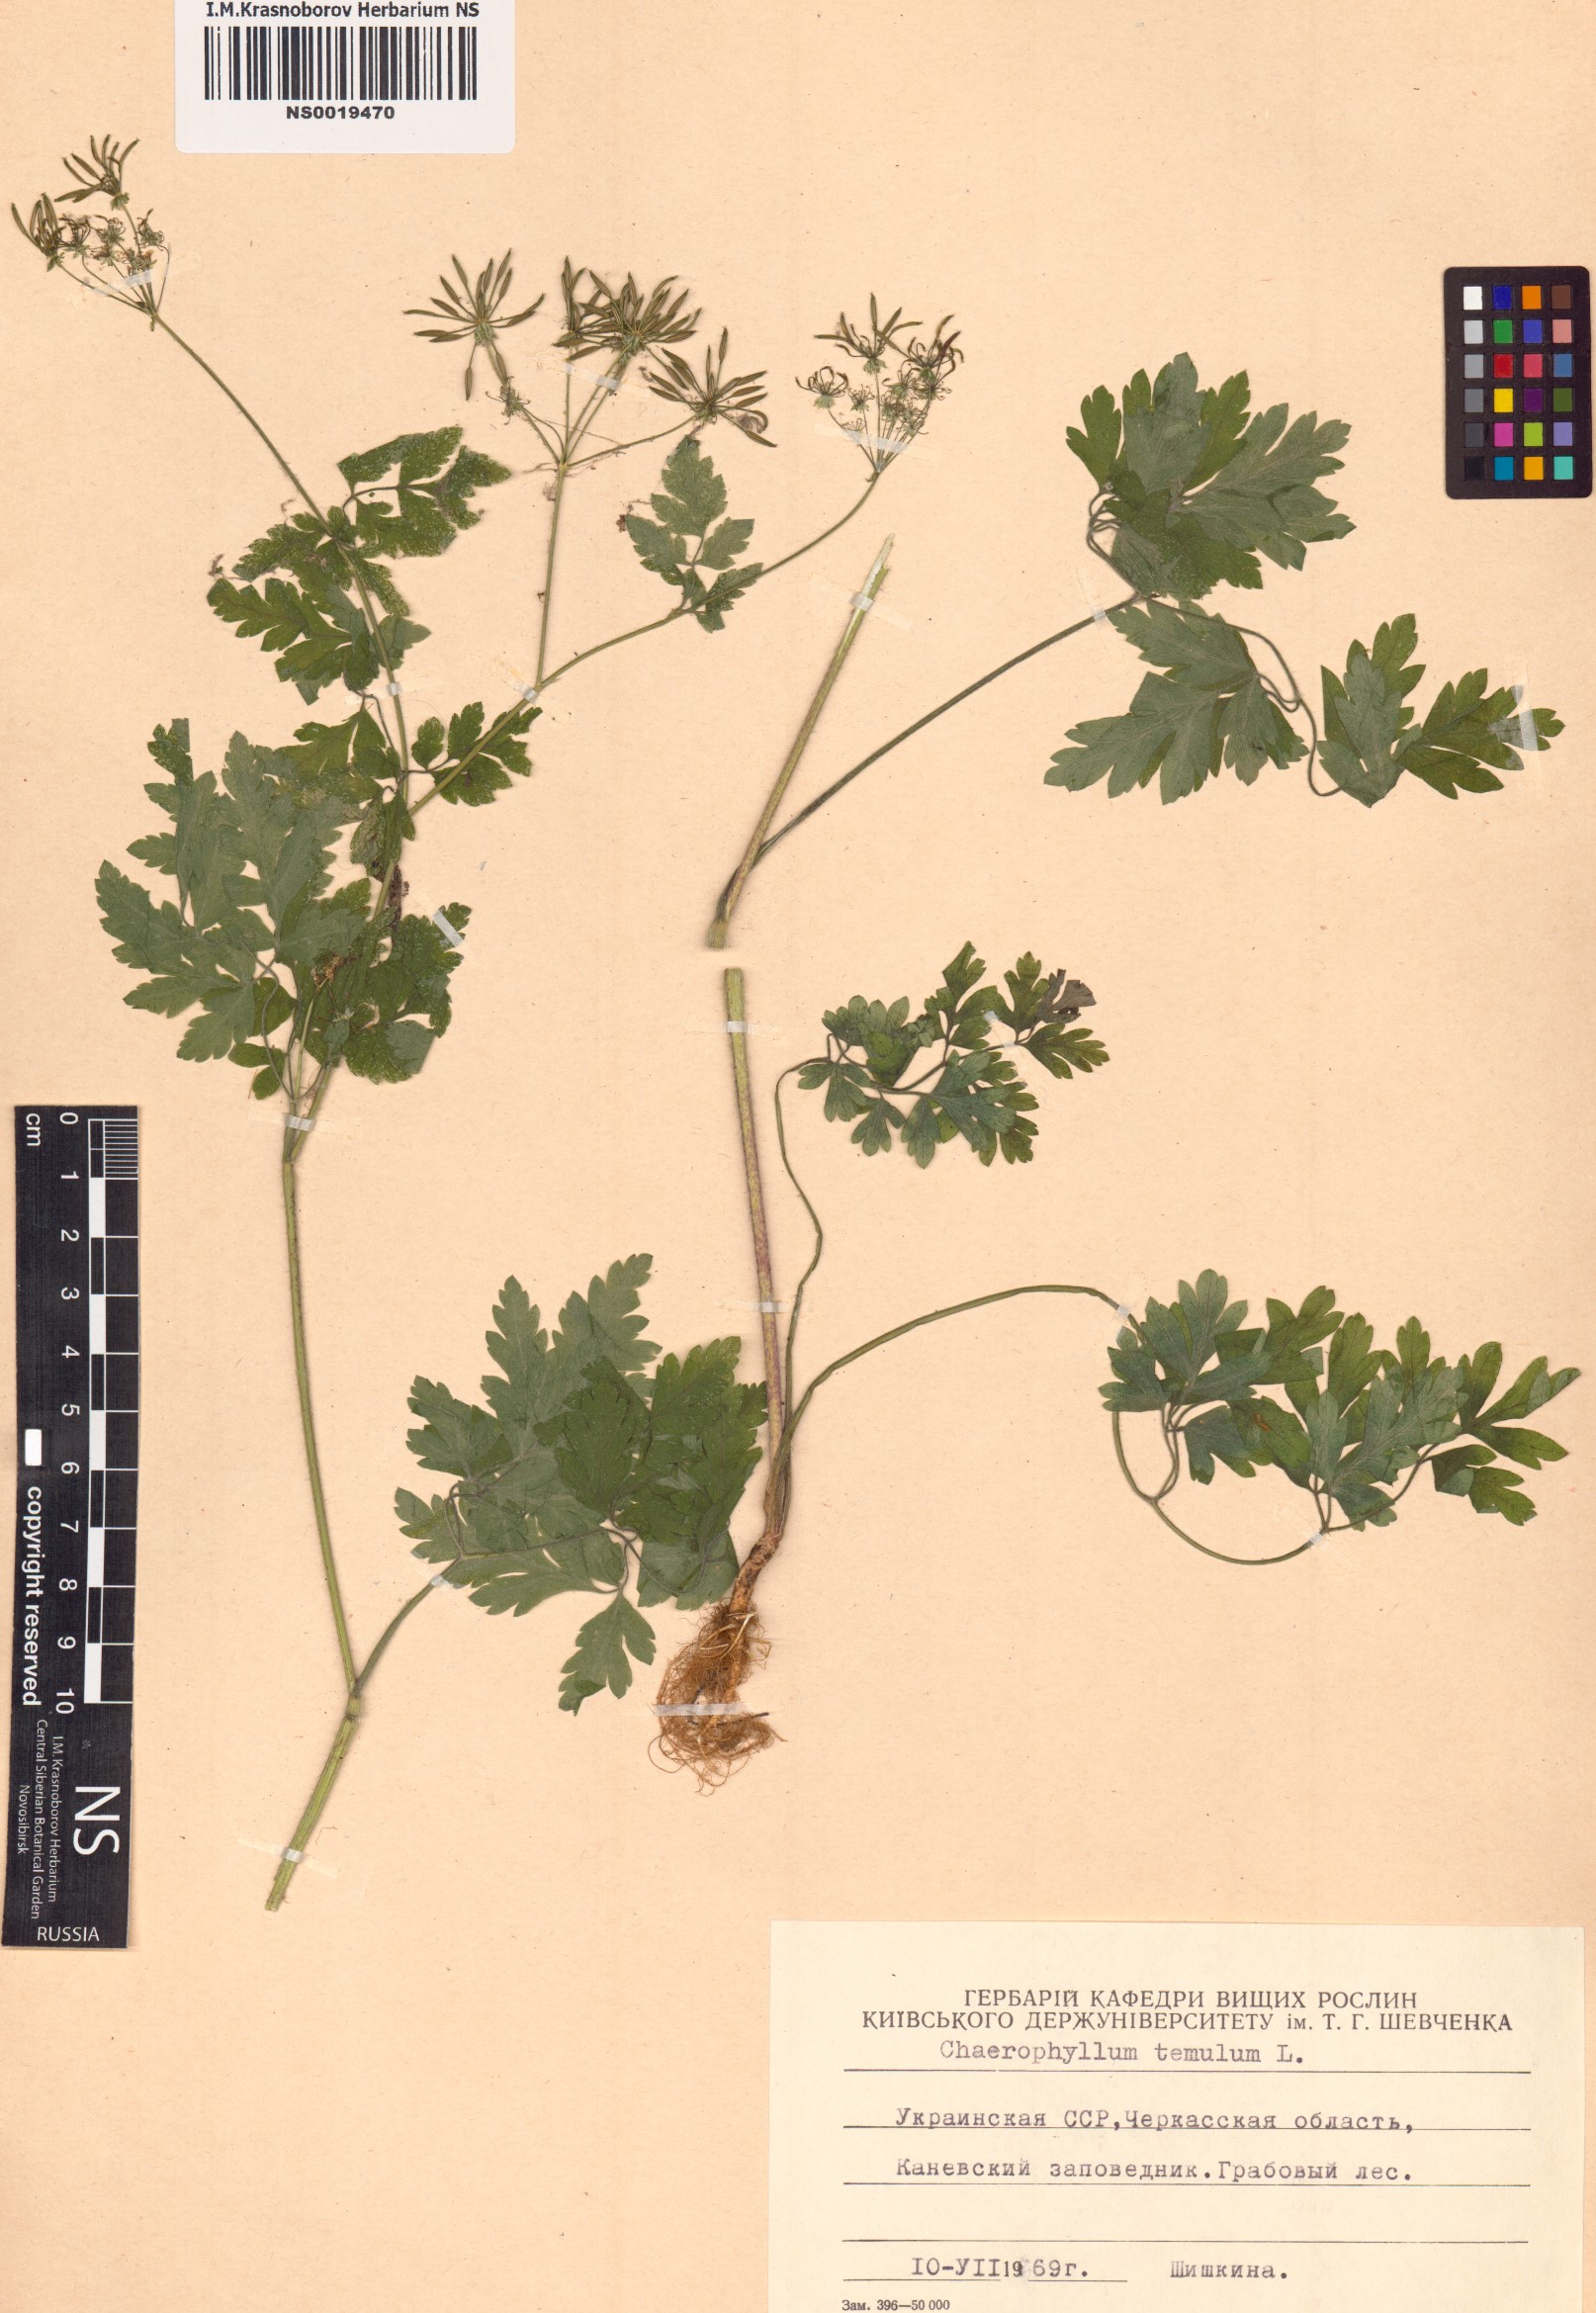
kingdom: Plantae
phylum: Tracheophyta
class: Magnoliopsida
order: Apiales
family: Apiaceae
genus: Chaerophyllum
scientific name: Chaerophyllum temulum
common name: Rough chervil
